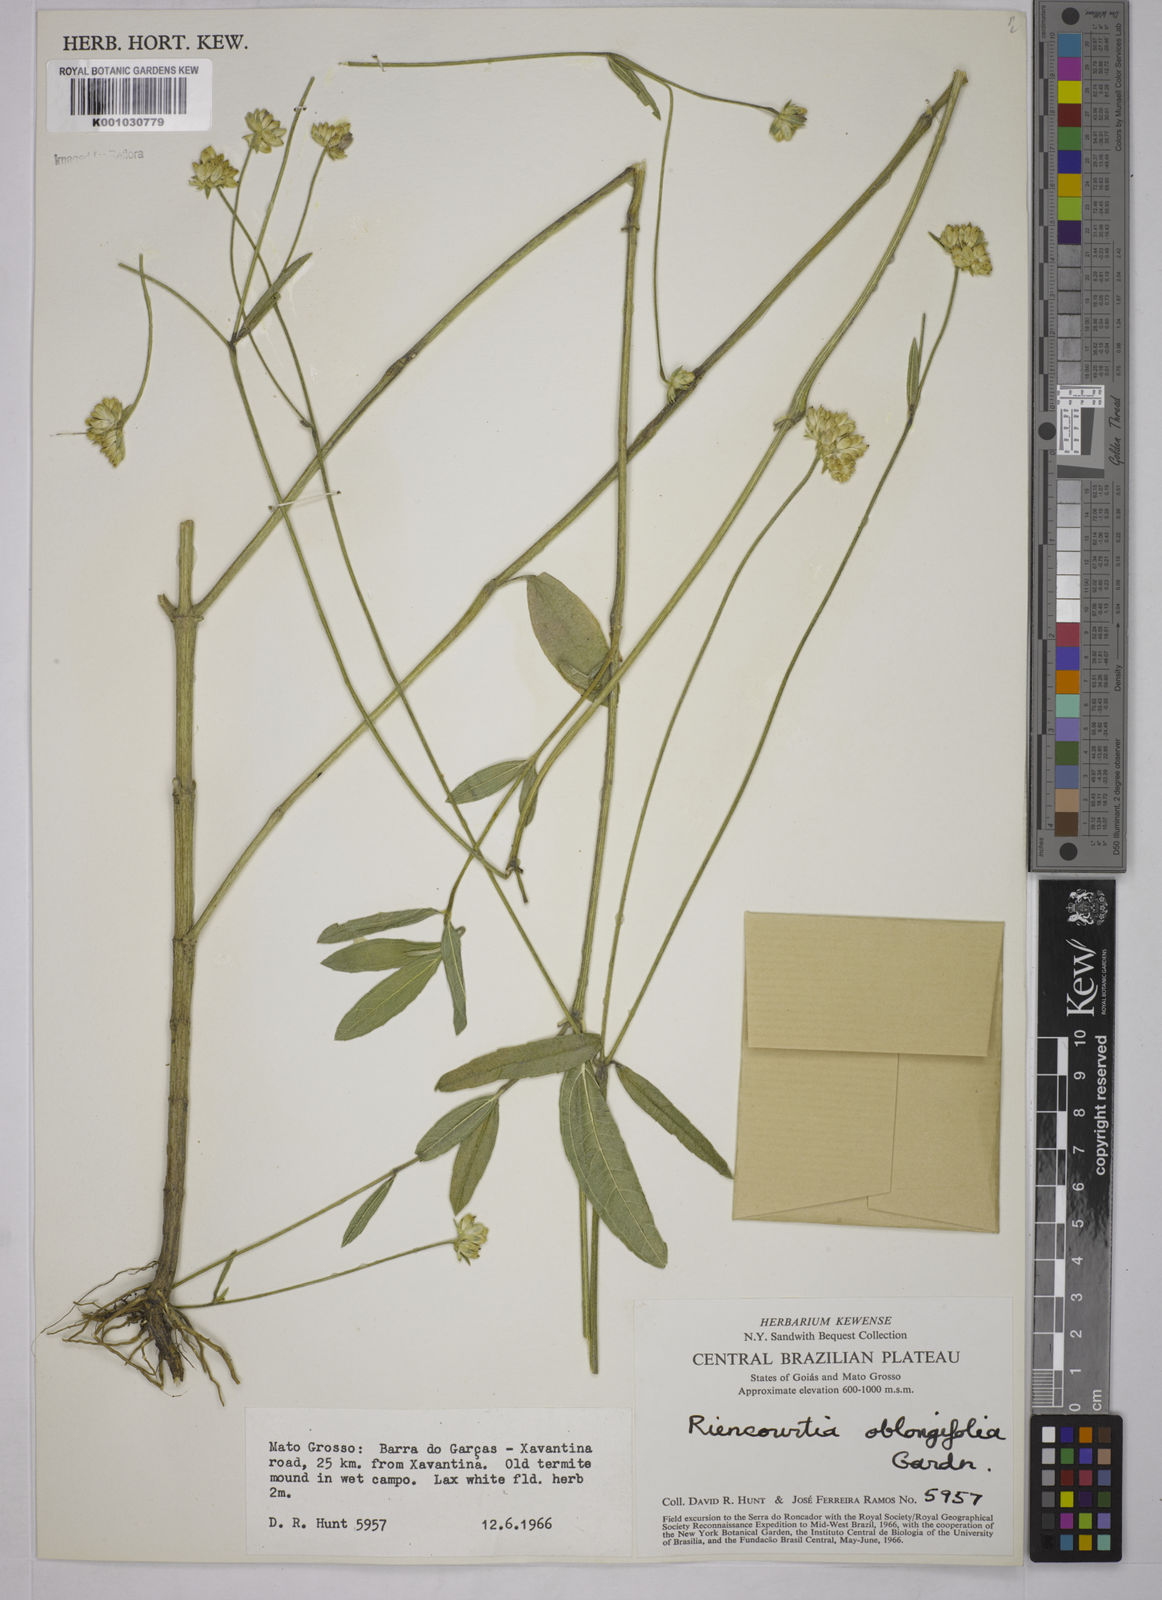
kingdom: Plantae
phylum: Tracheophyta
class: Magnoliopsida
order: Asterales
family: Asteraceae
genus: Riencourtia
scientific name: Riencourtia oblongifolia
